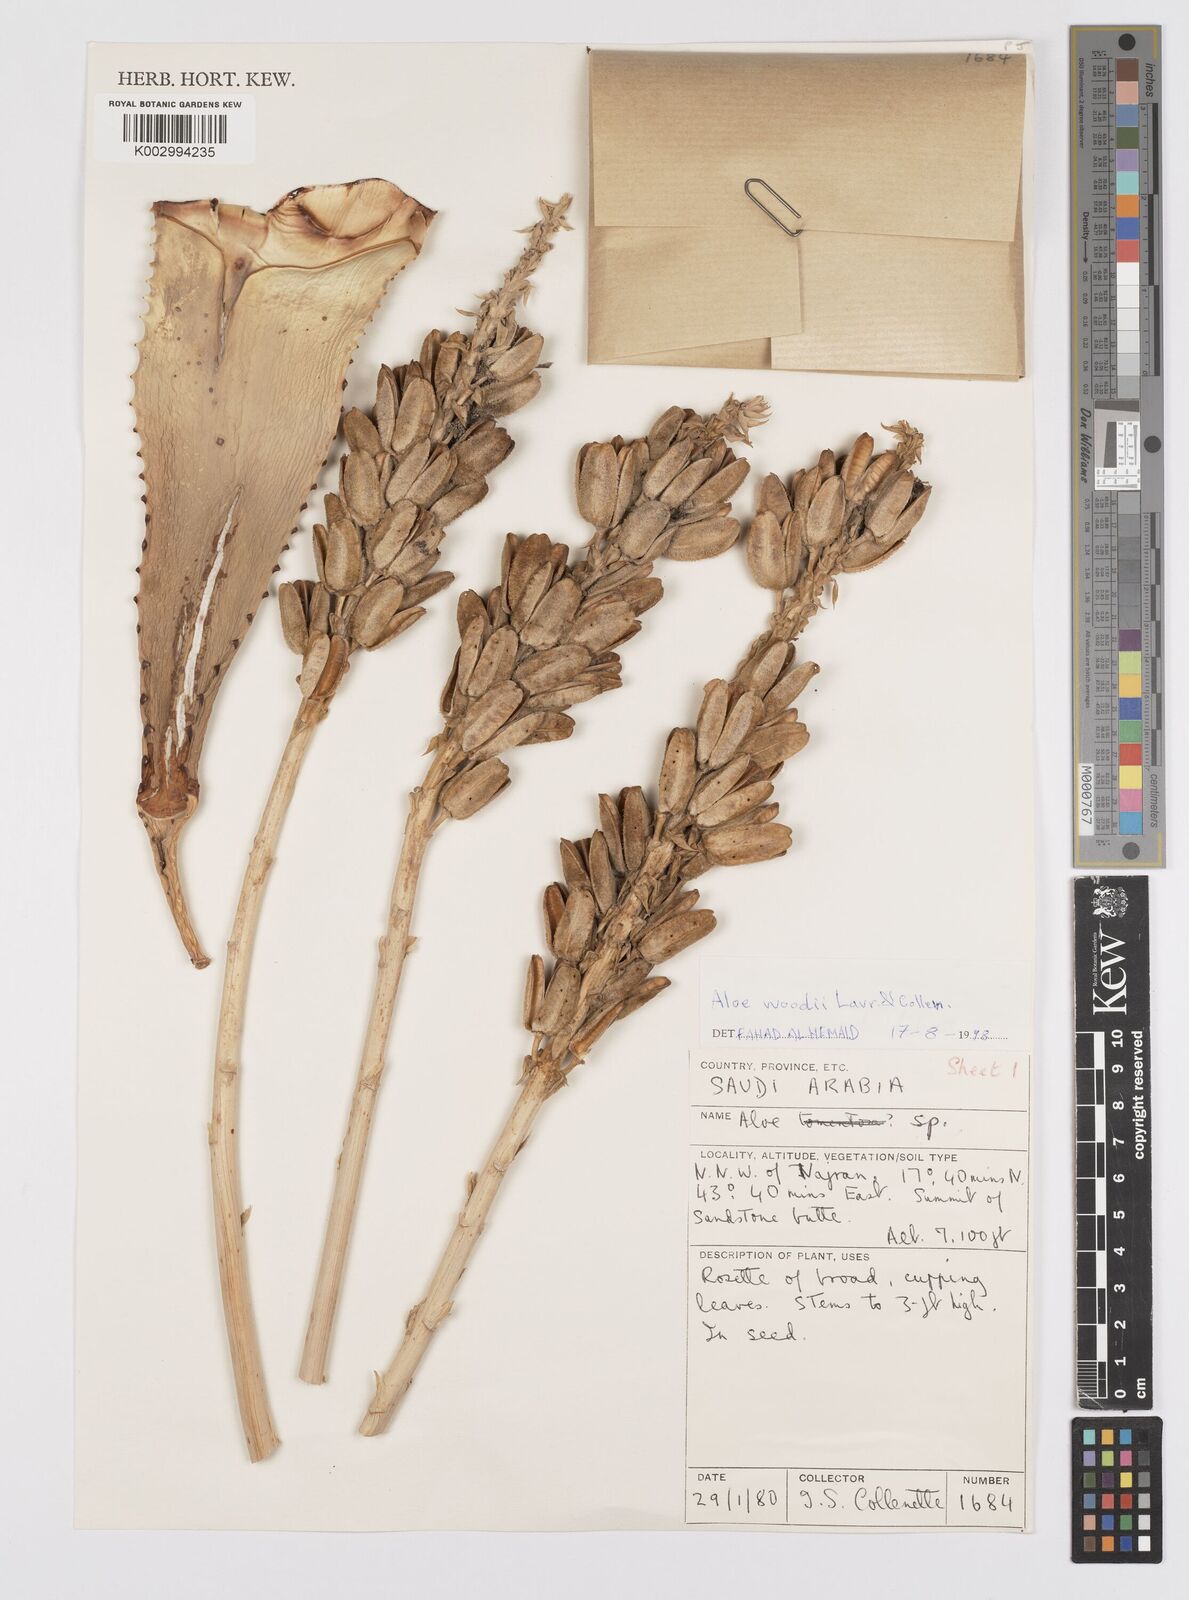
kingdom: Plantae
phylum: Tracheophyta
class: Liliopsida
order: Asparagales
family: Asphodelaceae
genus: Aloe
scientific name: Aloe woodii
